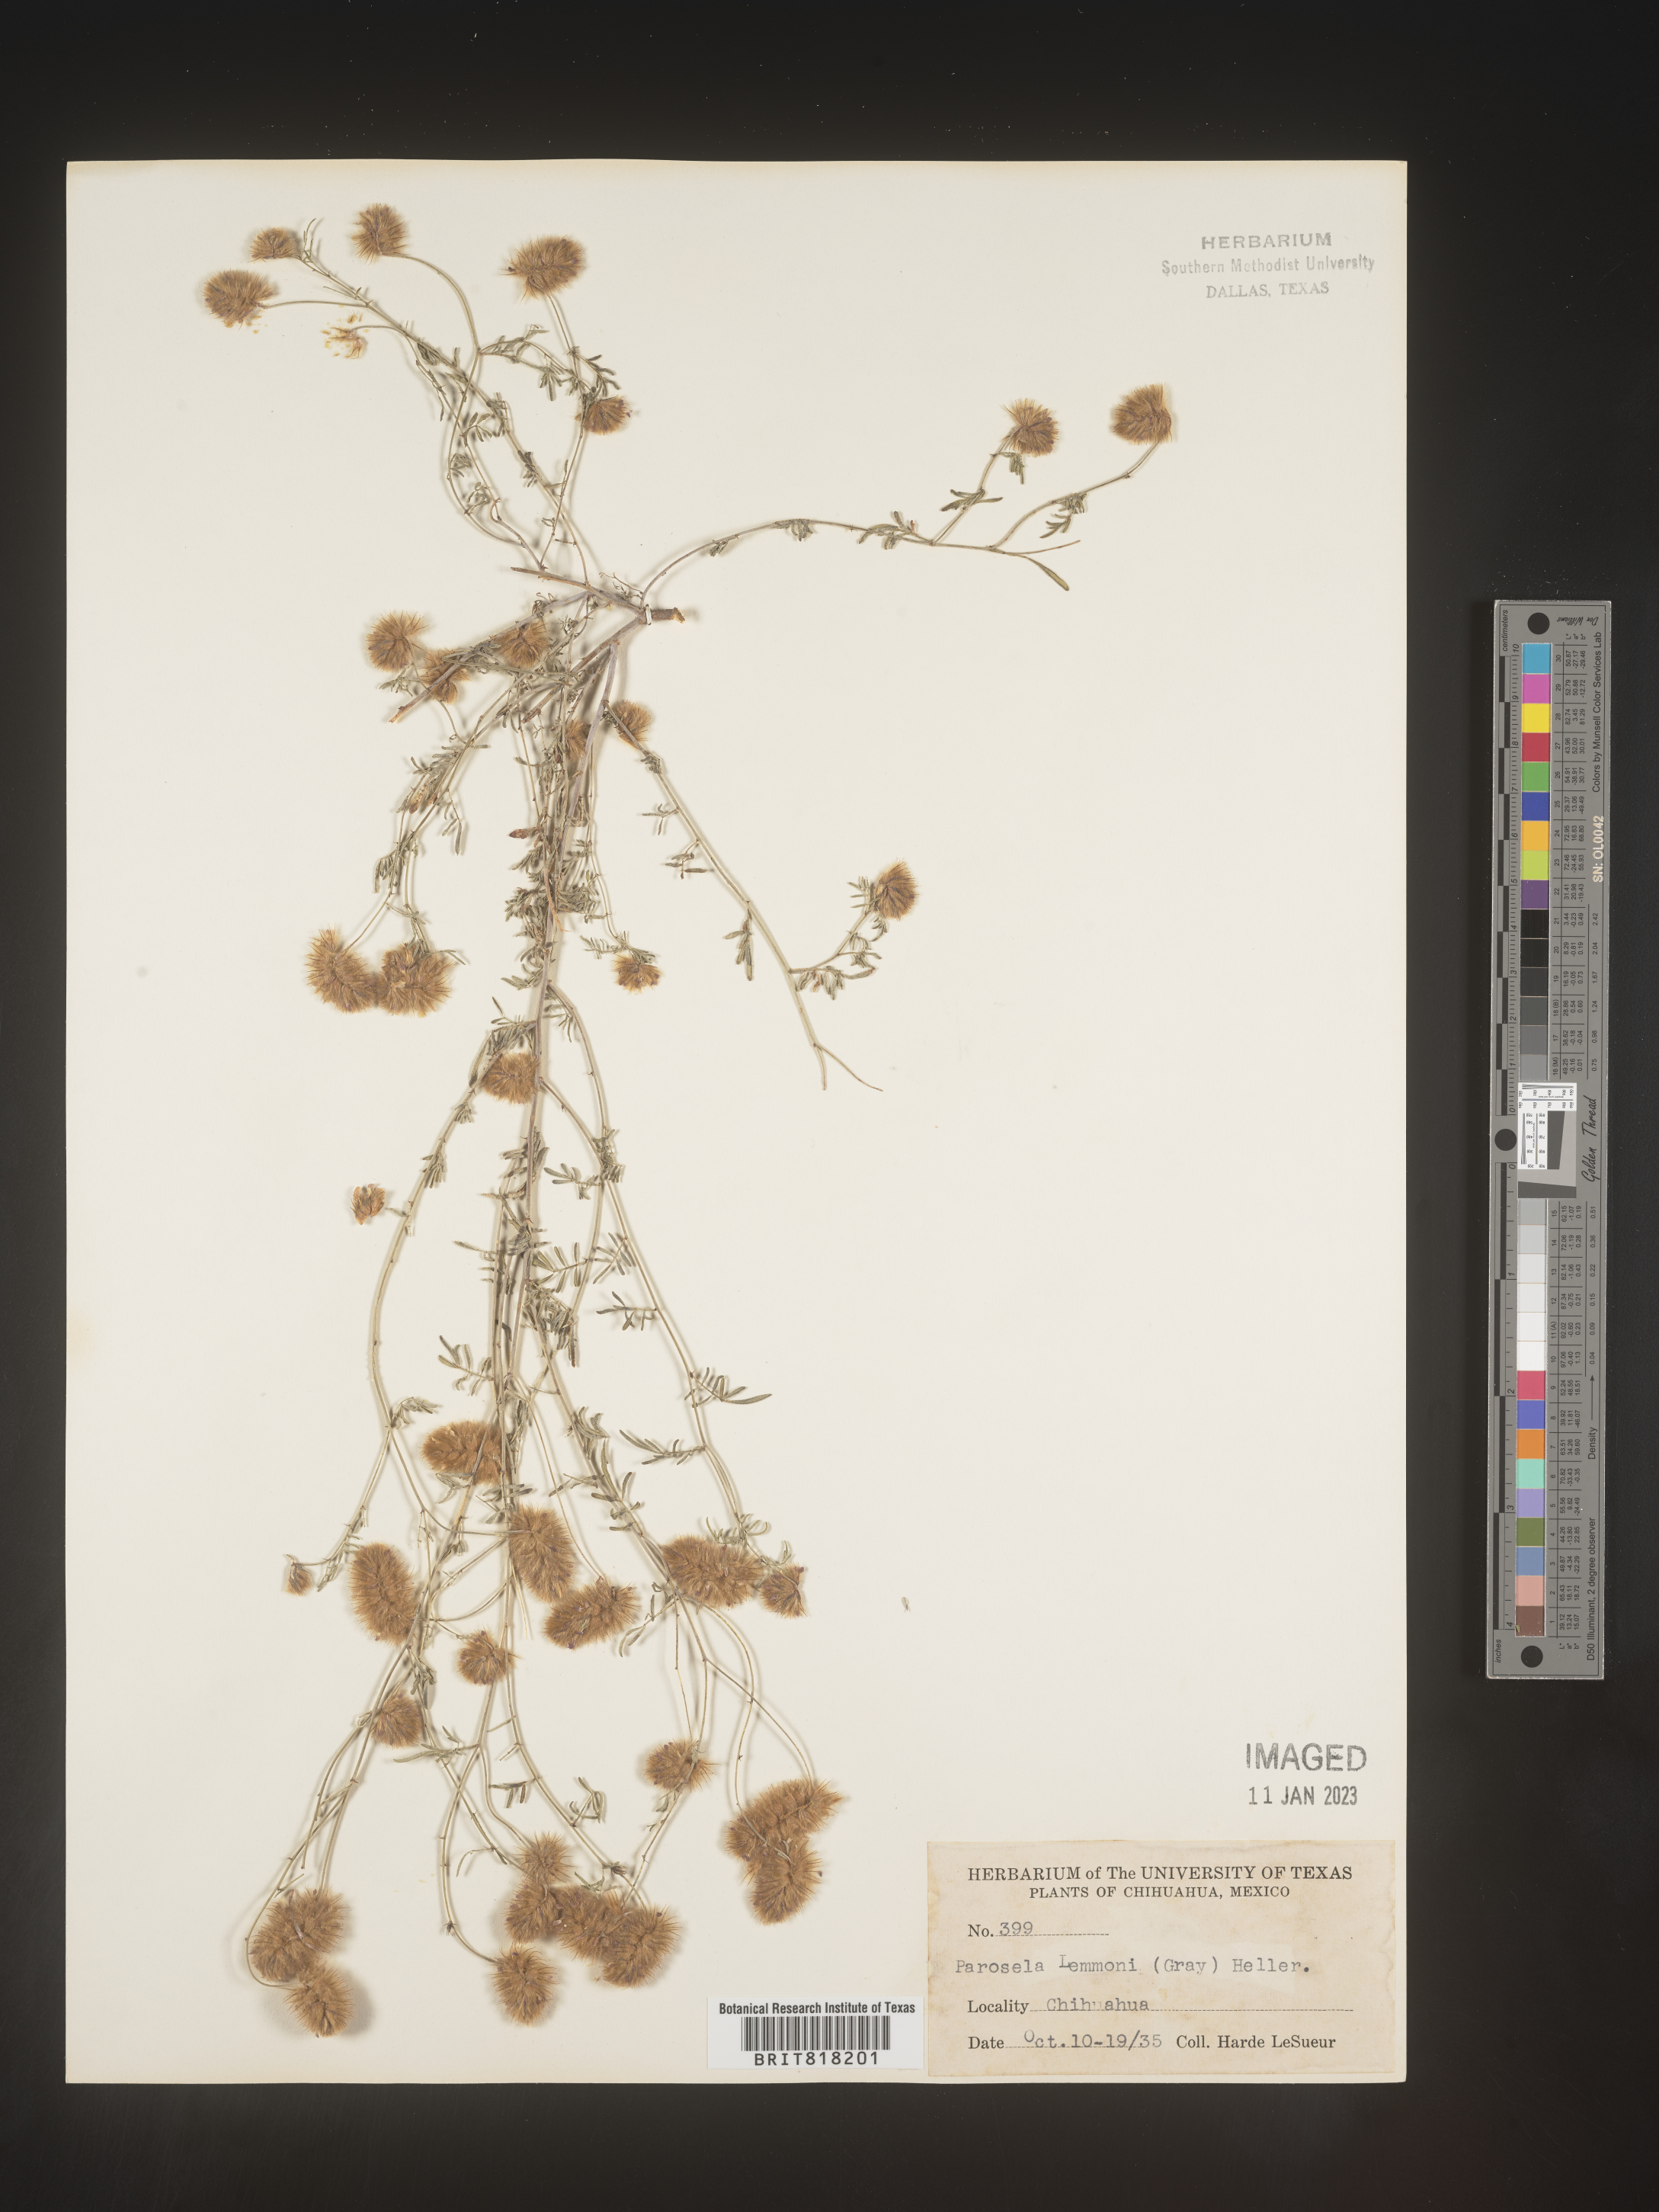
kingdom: Plantae
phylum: Tracheophyta
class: Magnoliopsida
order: Fabales
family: Fabaceae
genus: Dalea
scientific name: Dalea
